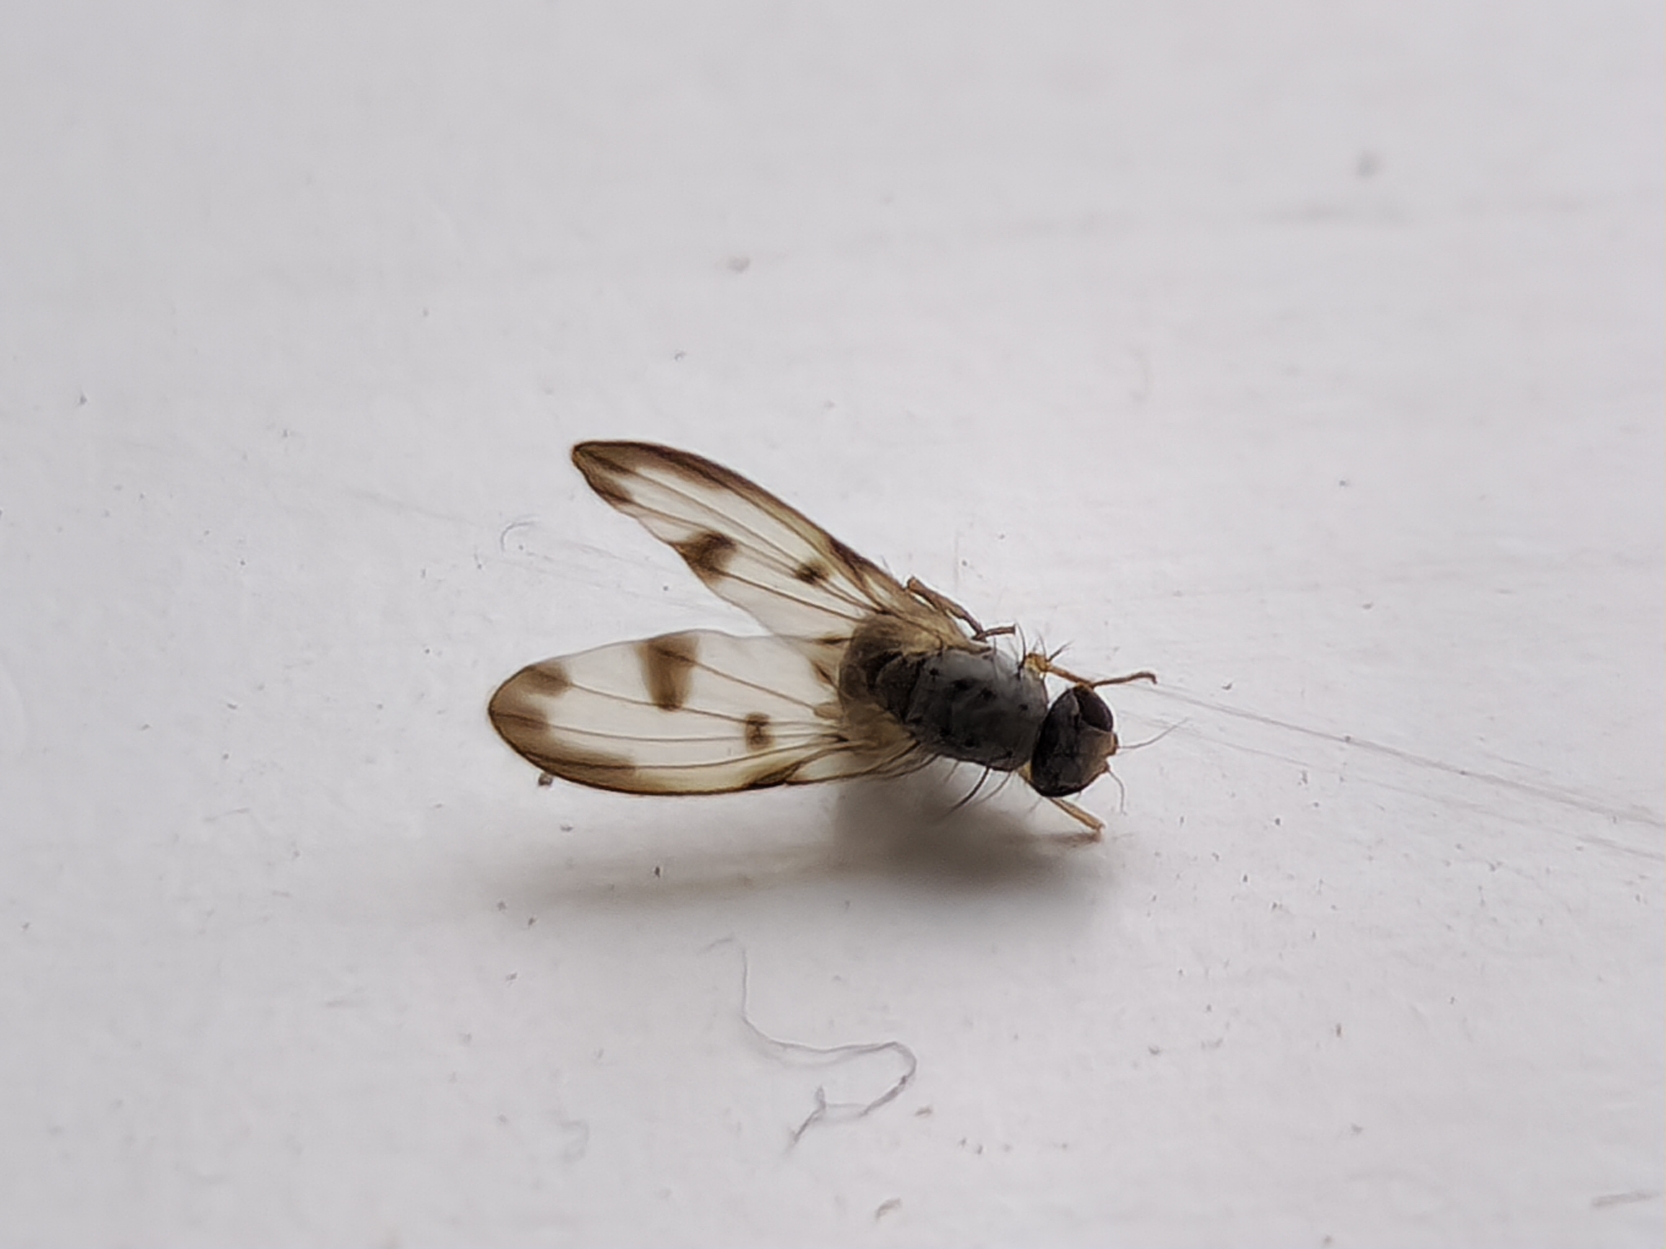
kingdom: Animalia
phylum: Arthropoda
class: Insecta
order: Diptera
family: Pallopteridae
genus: Palloptera
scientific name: Palloptera umbellatarum
